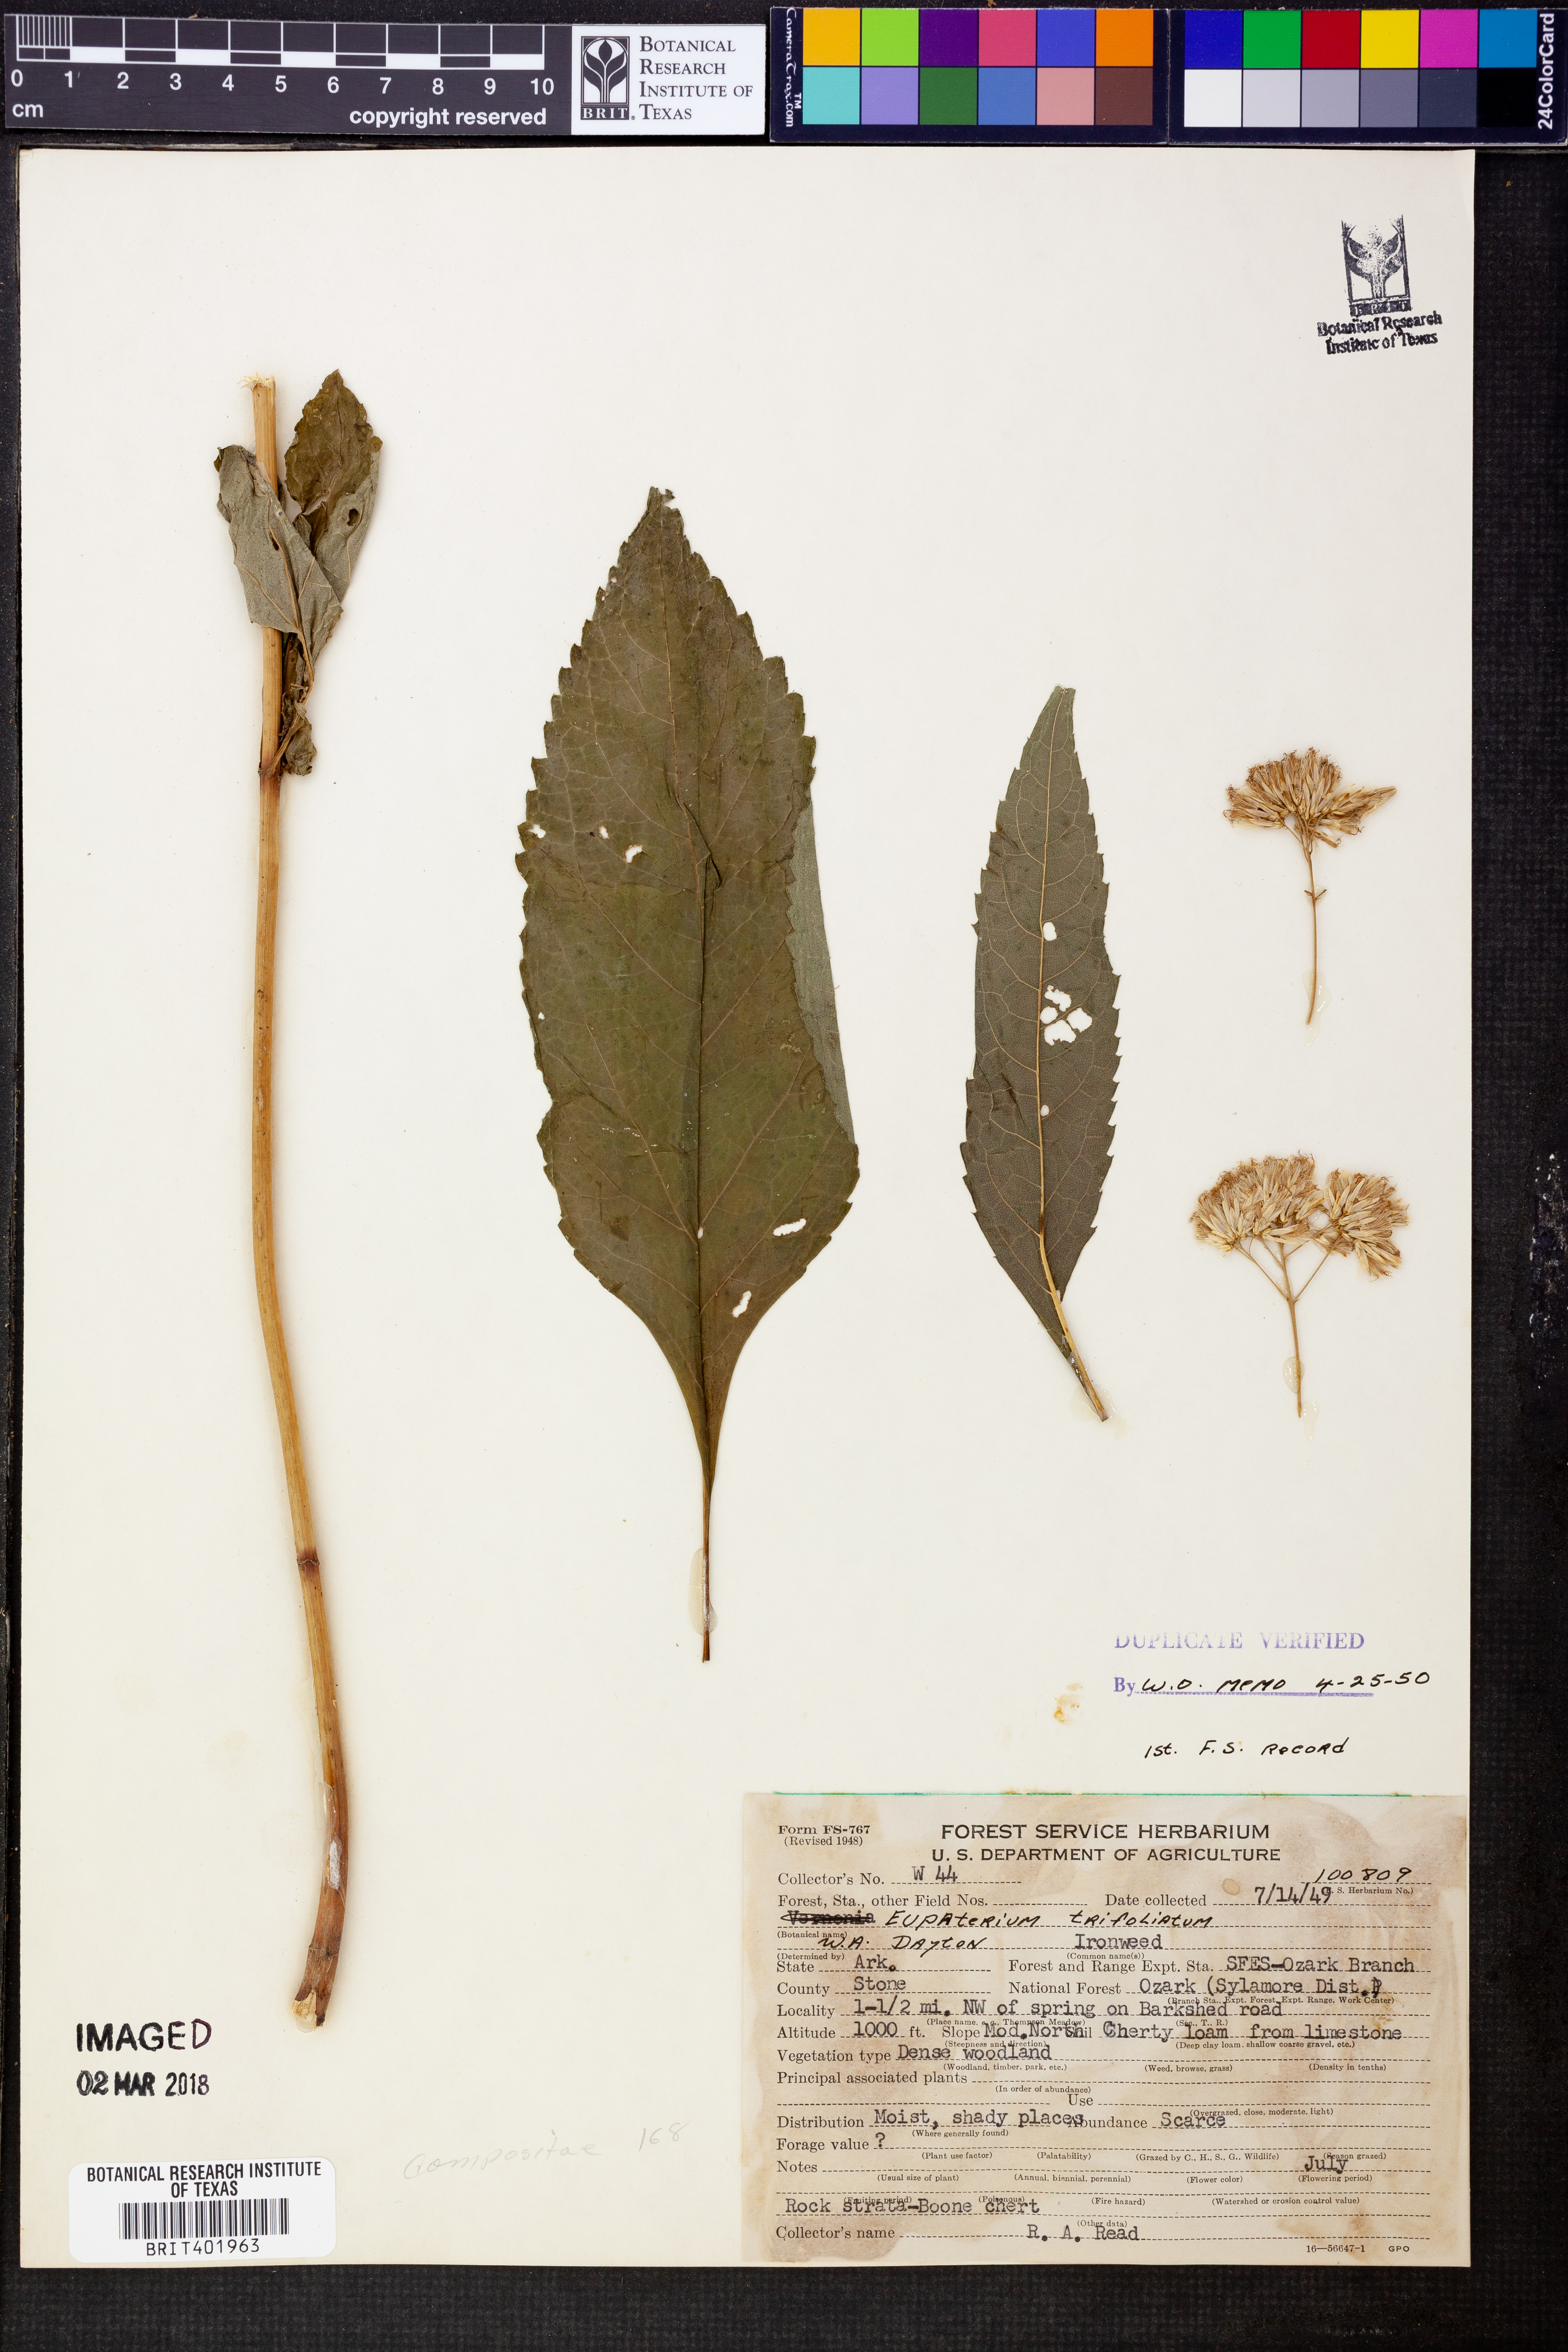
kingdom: Plantae
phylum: Tracheophyta
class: Magnoliopsida
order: Asterales
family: Asteraceae
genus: Eutrochium
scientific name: Eutrochium purpureum
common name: Gravelroot
